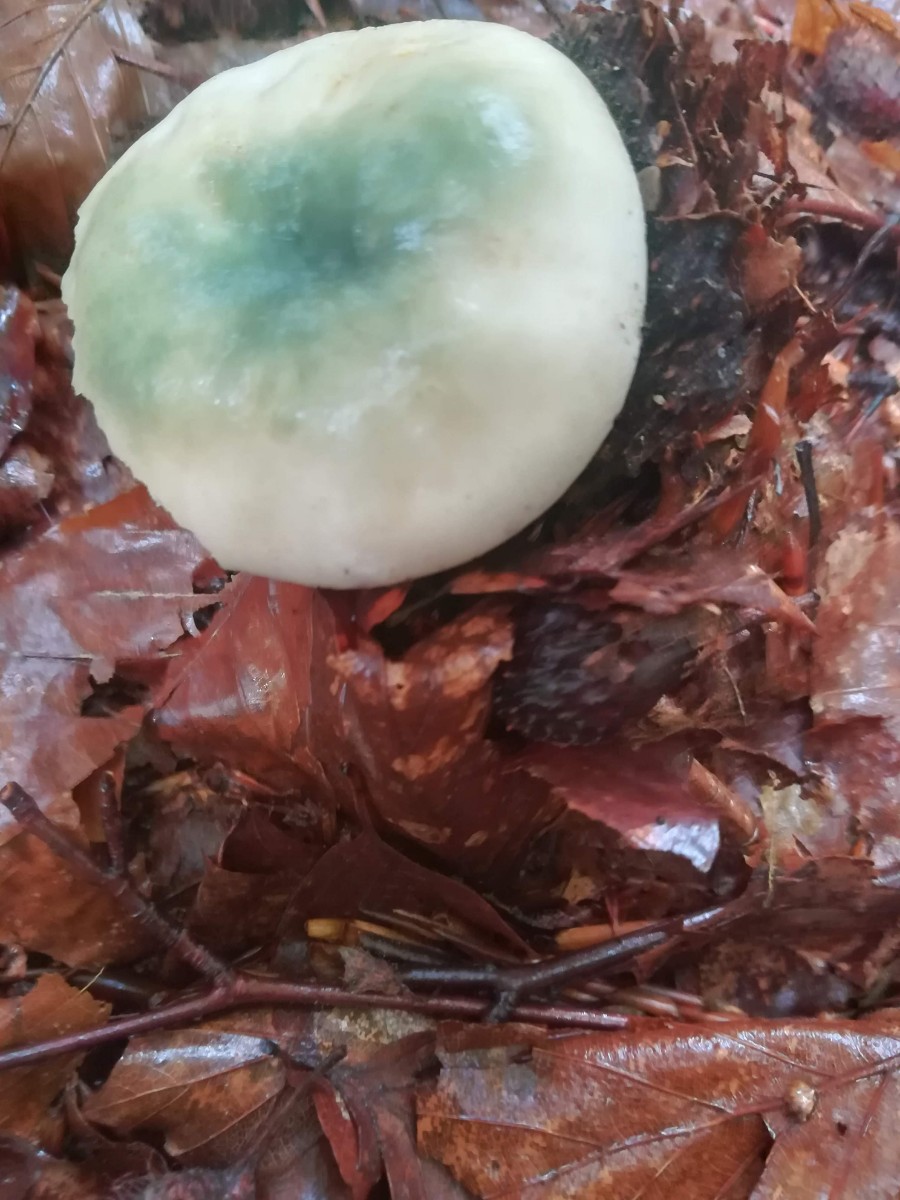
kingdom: Fungi
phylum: Basidiomycota
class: Agaricomycetes
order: Russulales
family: Russulaceae
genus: Russula
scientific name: Russula aeruginea
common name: græsgrøn skørhat
